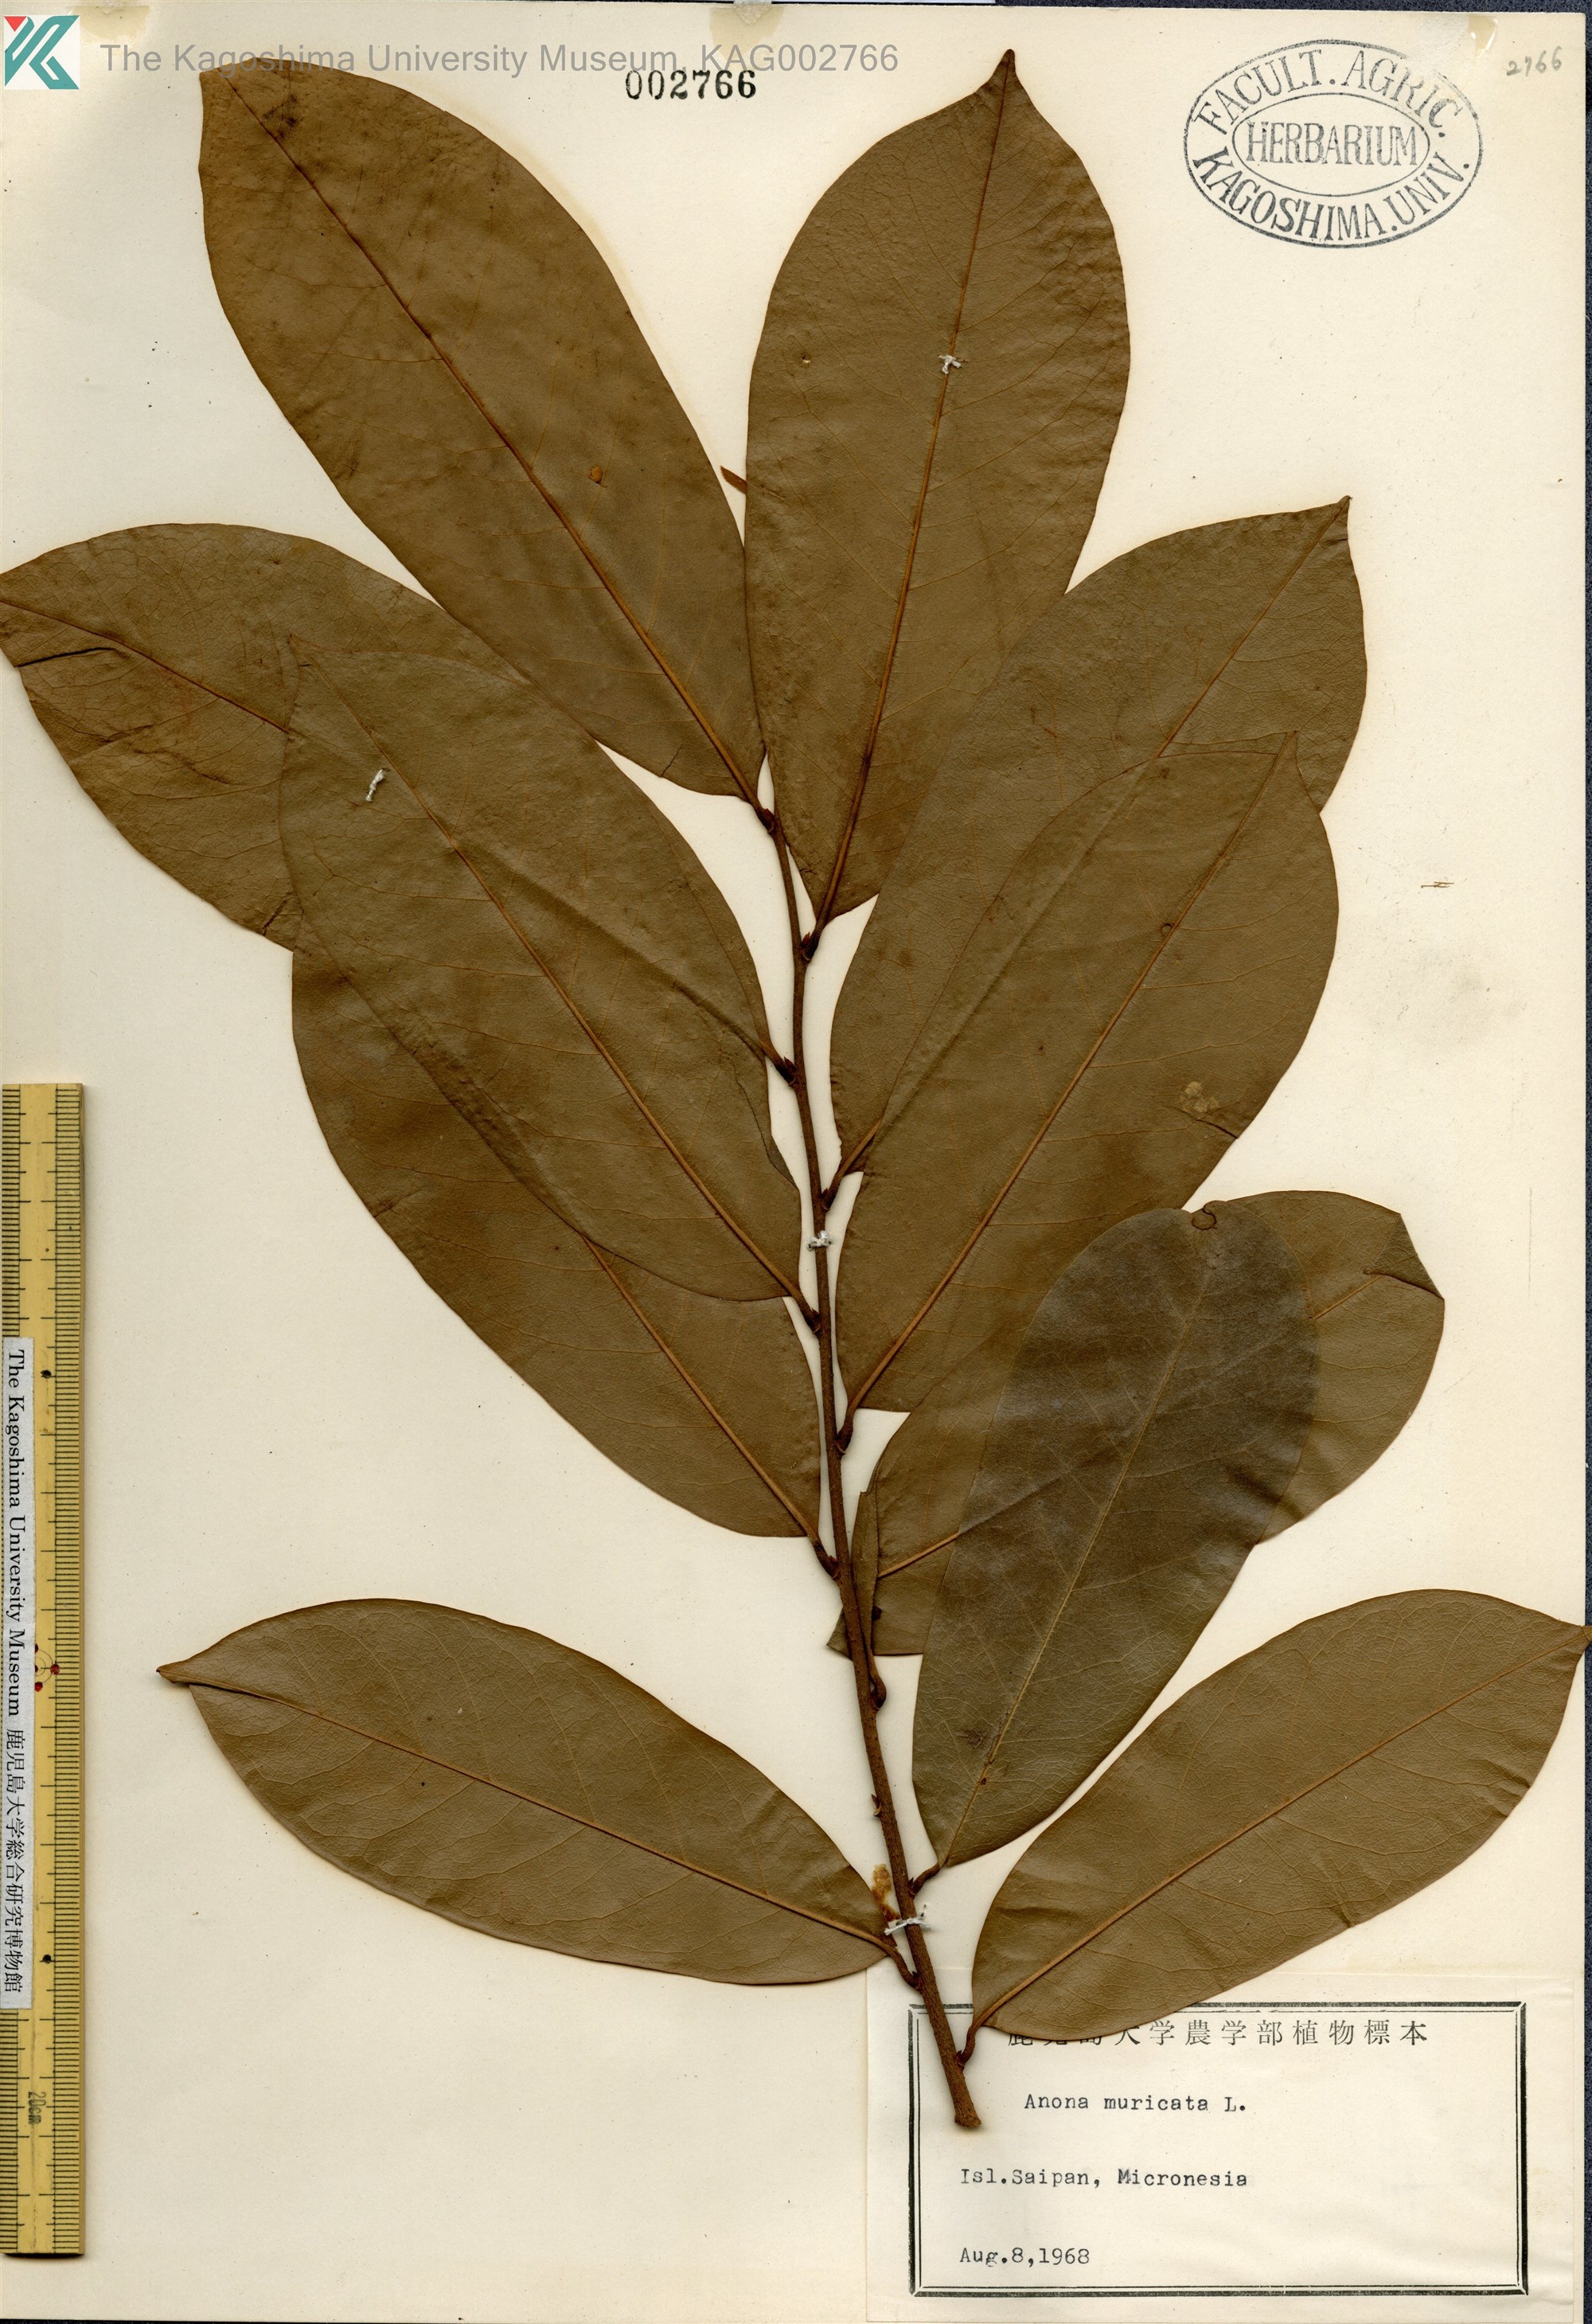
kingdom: Plantae
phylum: Tracheophyta
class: Magnoliopsida
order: Magnoliales
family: Annonaceae
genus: Annona
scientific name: Annona muricata
